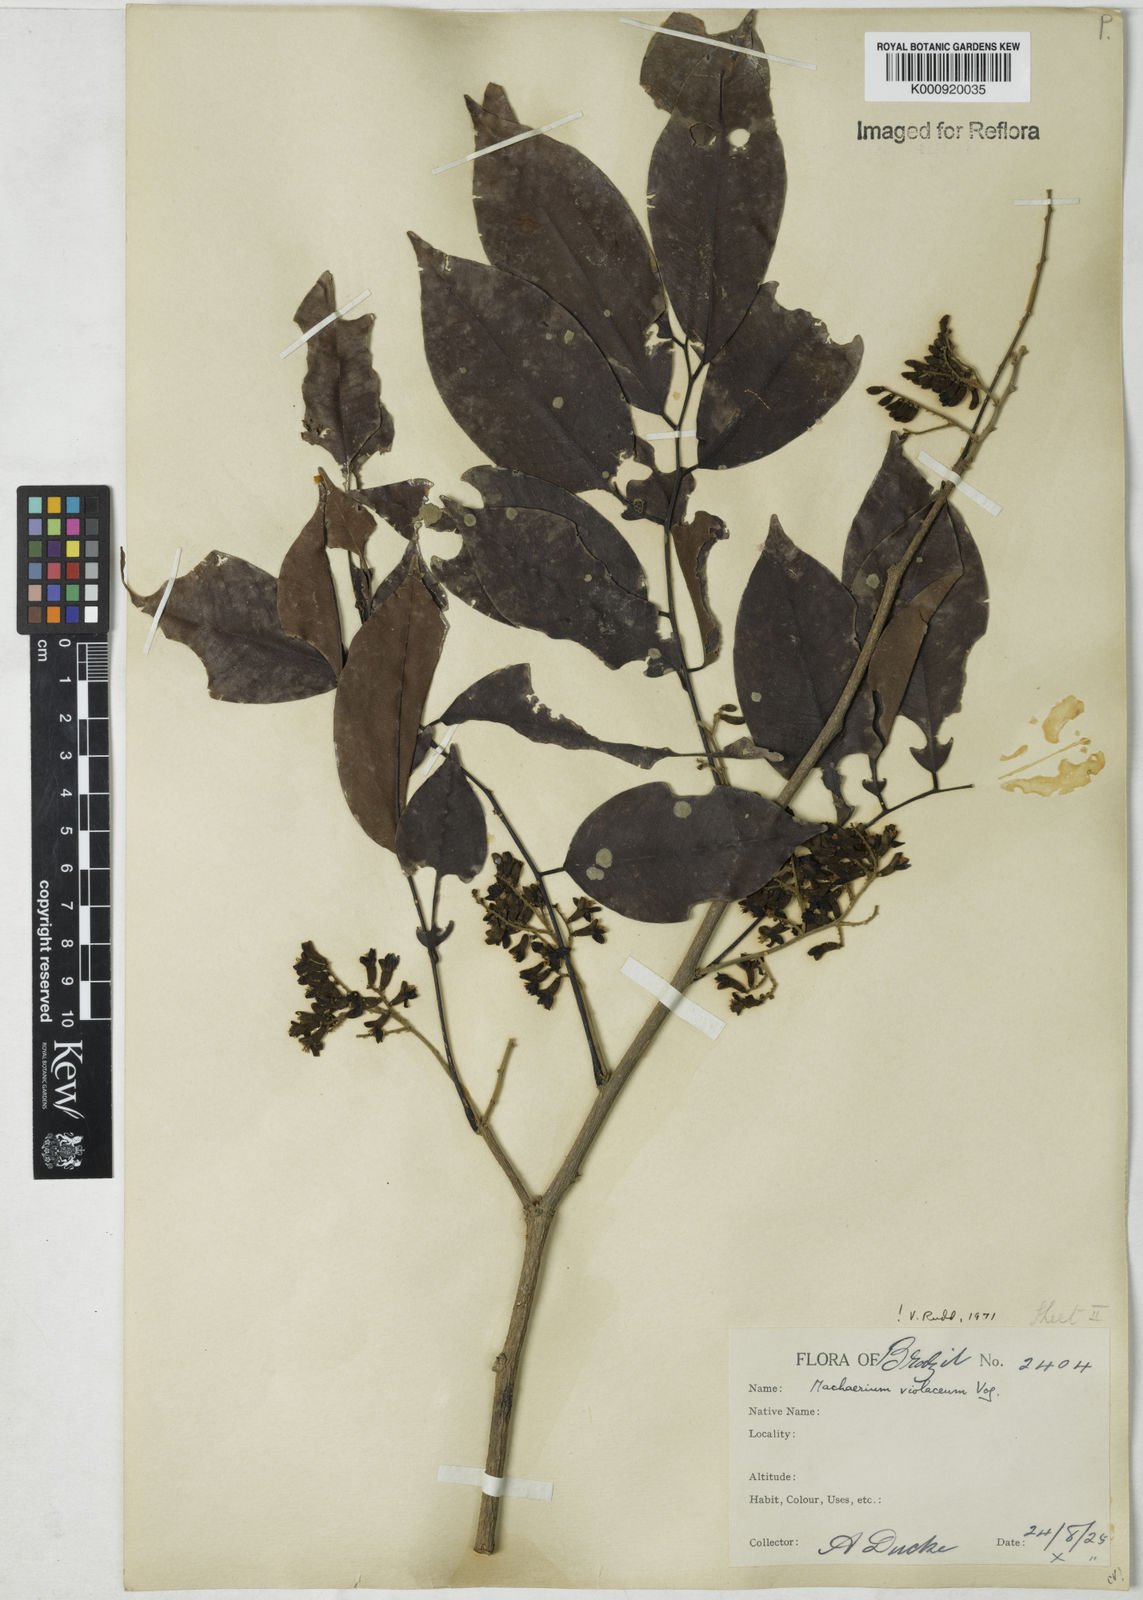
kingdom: Plantae
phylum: Tracheophyta
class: Magnoliopsida
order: Fabales
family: Fabaceae
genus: Machaerium
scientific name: Machaerium debile
